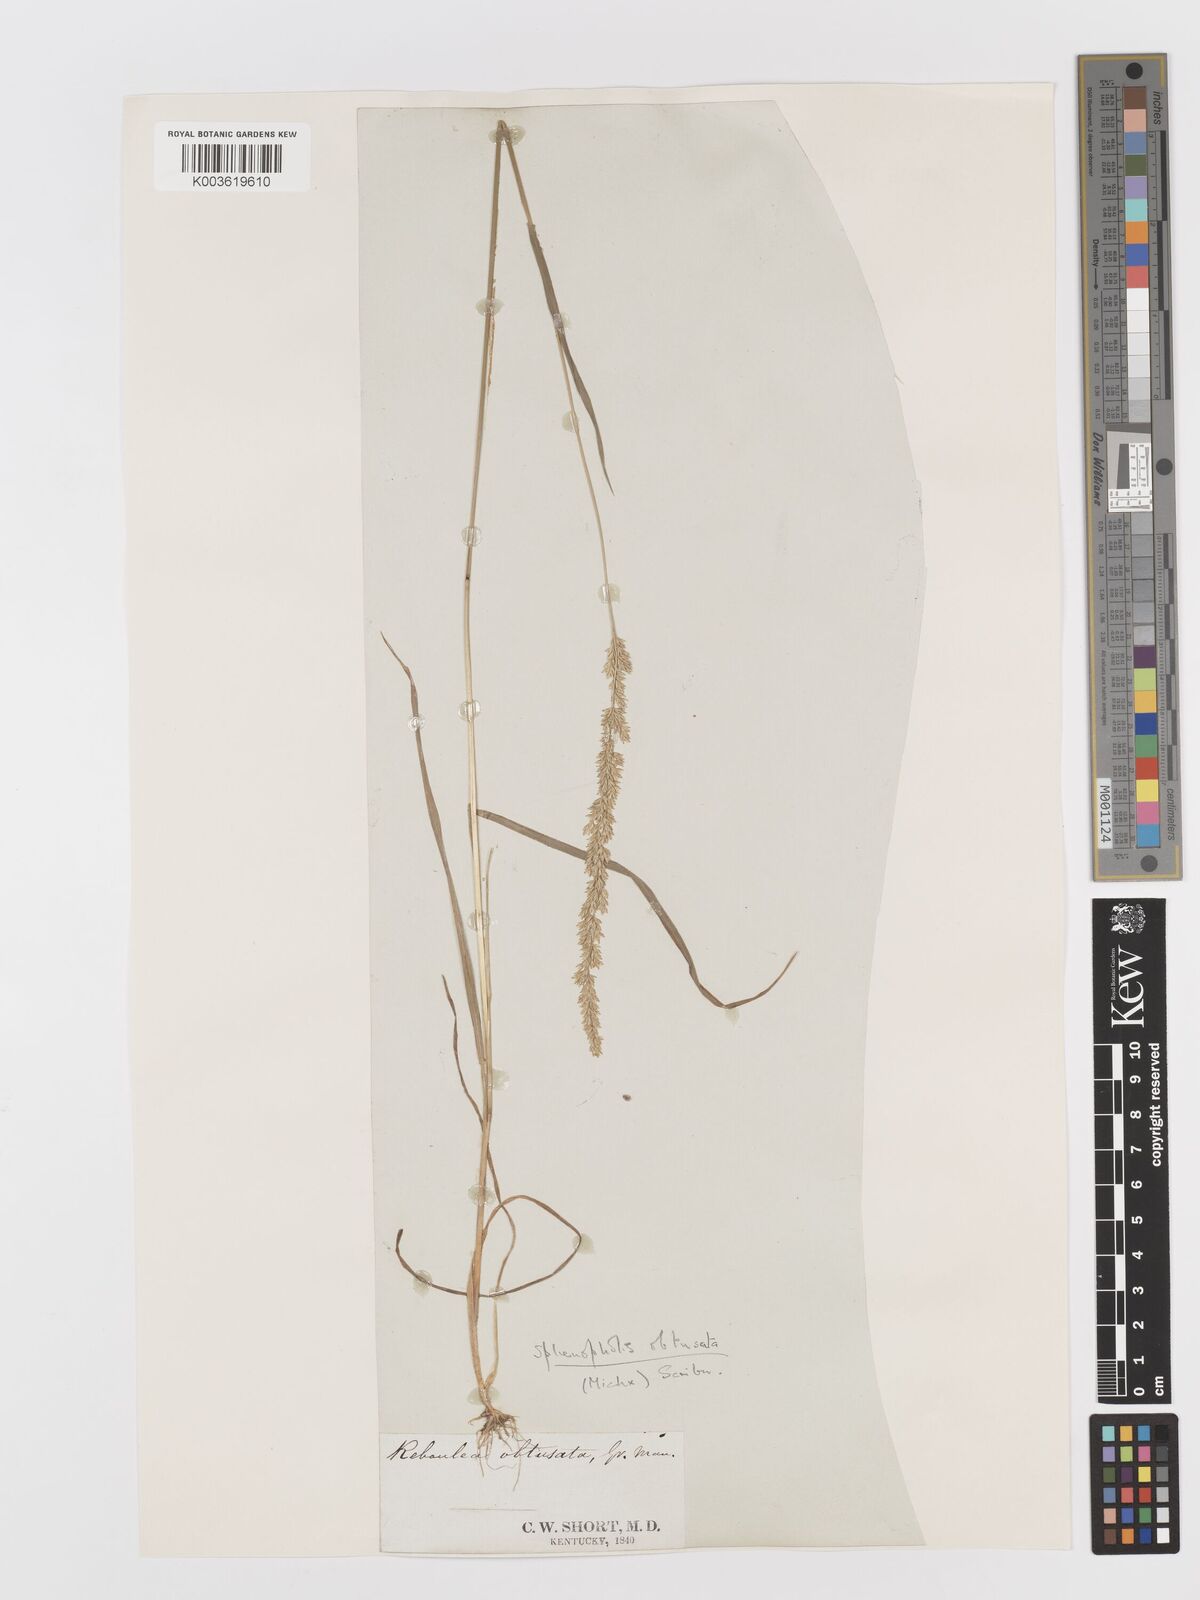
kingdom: Plantae
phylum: Tracheophyta
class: Liliopsida
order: Poales
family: Poaceae
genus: Sphenopholis
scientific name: Sphenopholis obtusata
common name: Prairie grass
